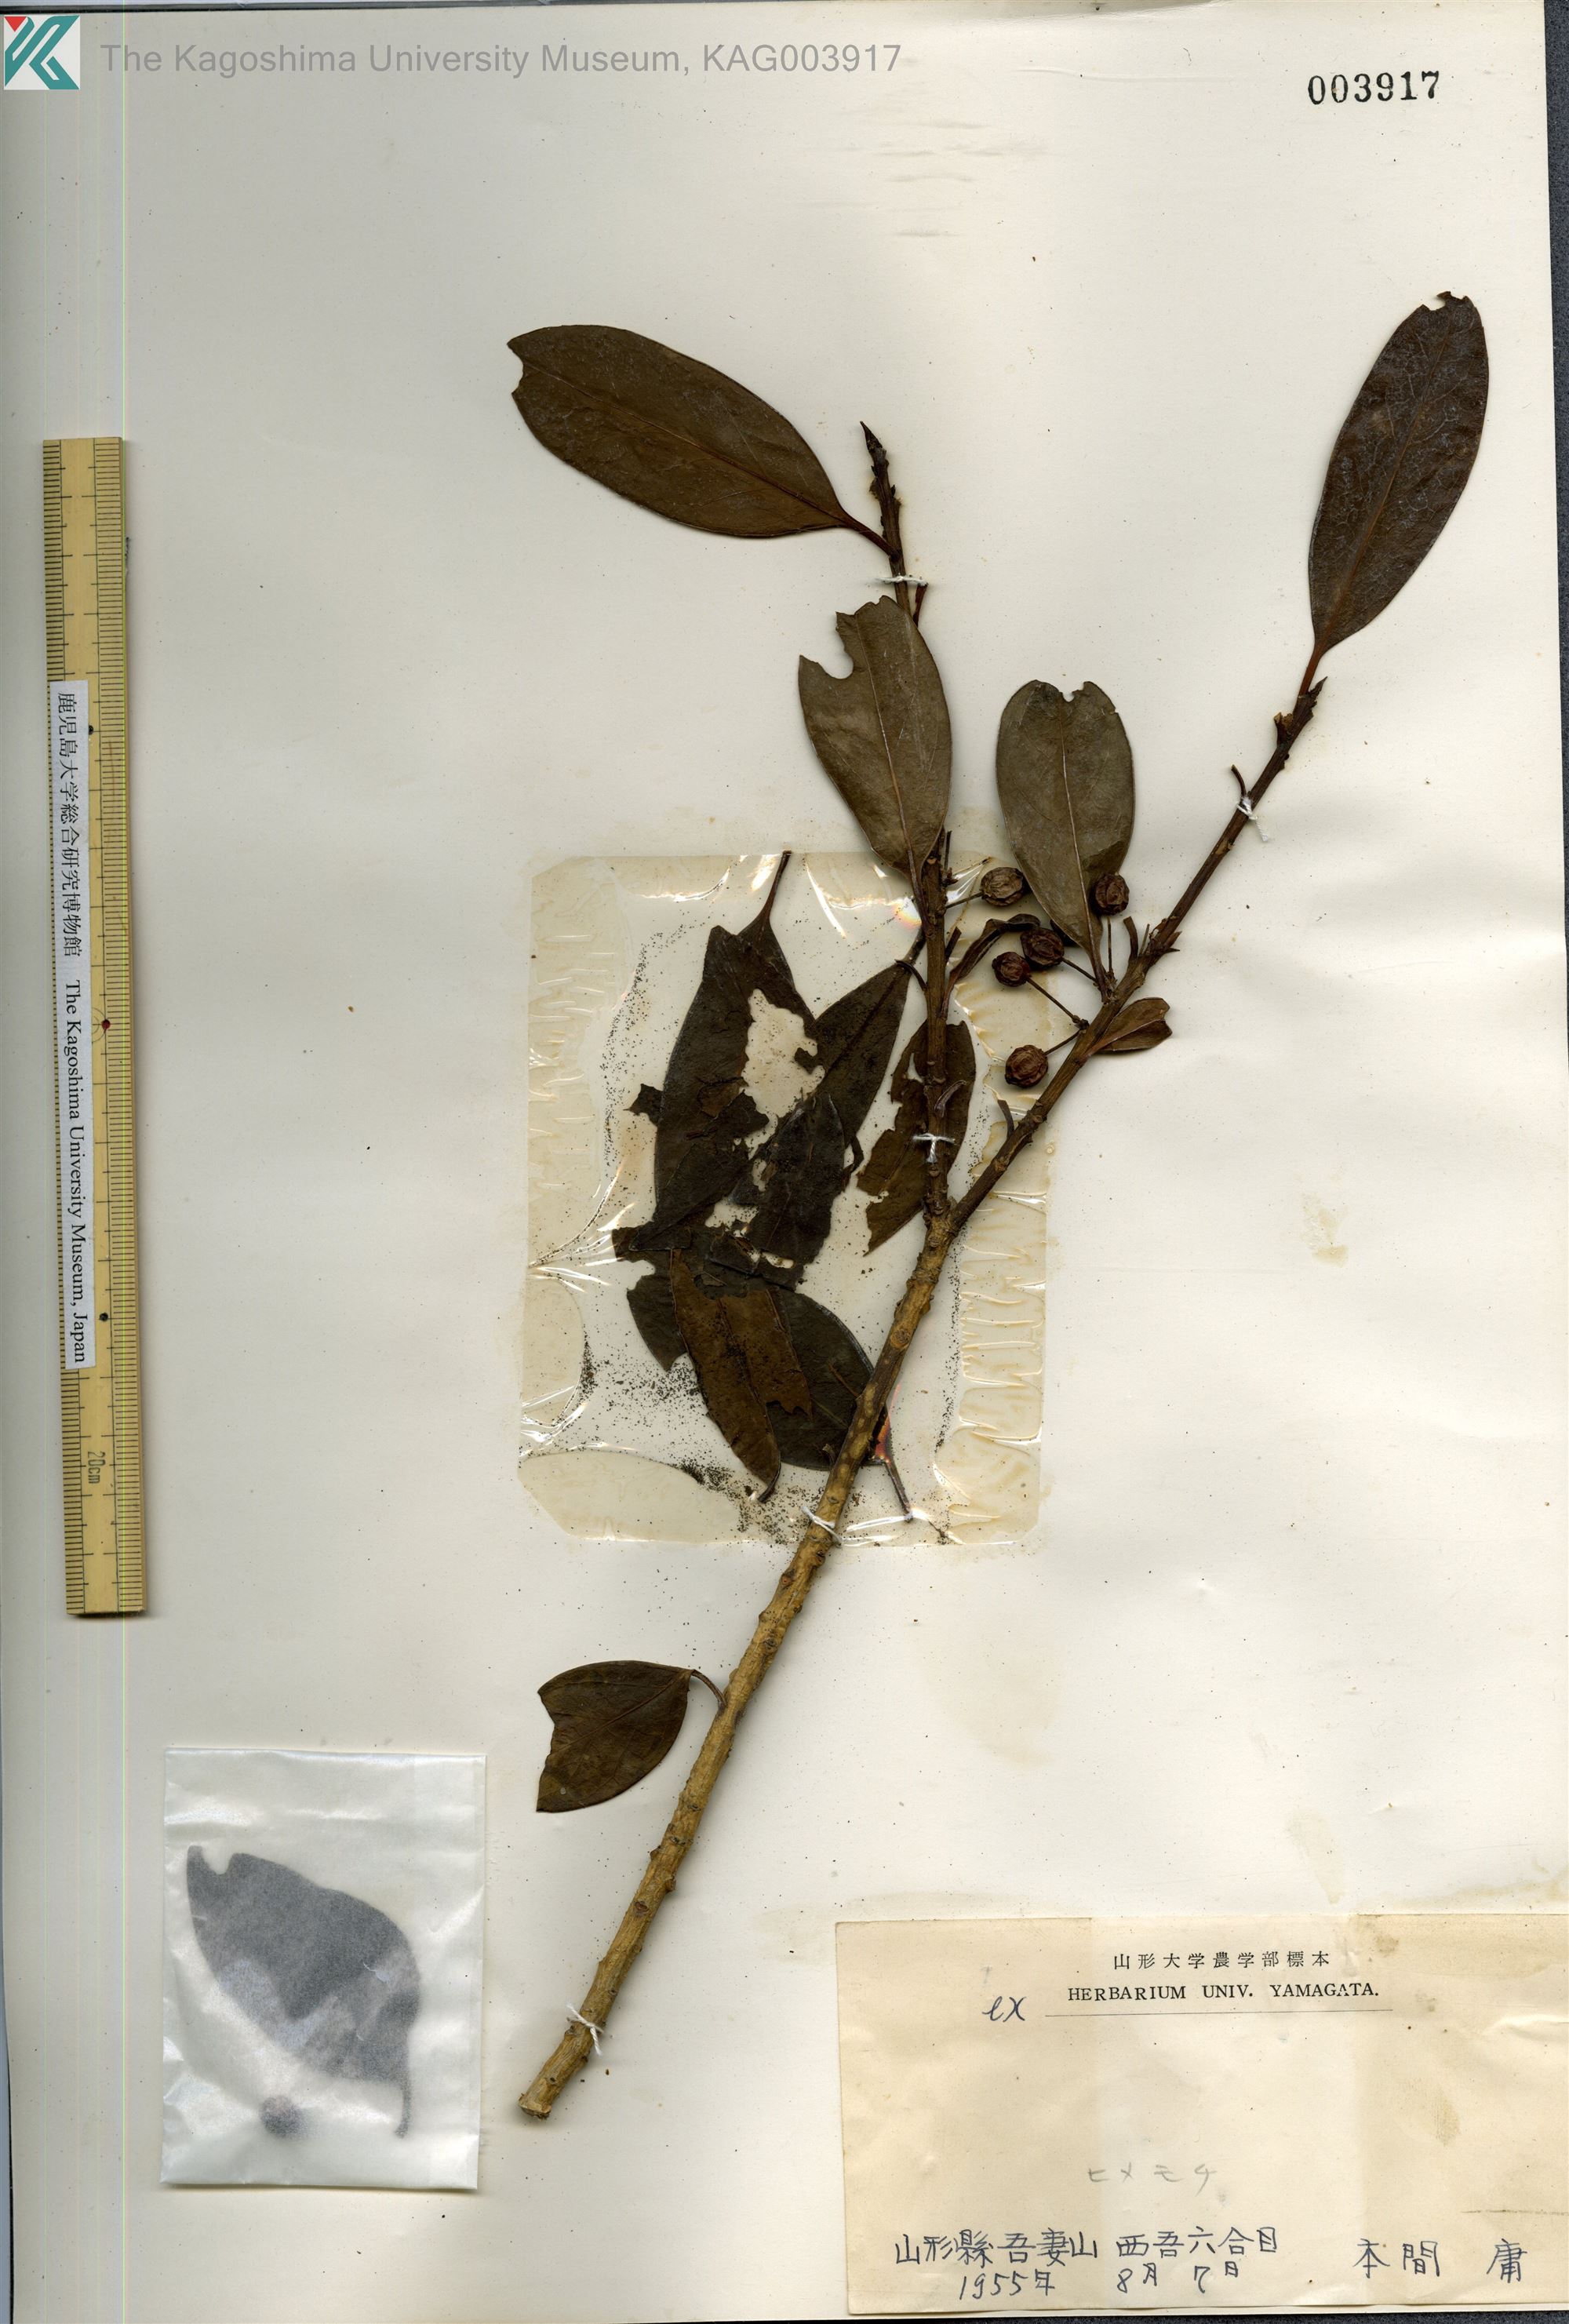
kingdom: Plantae
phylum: Tracheophyta
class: Magnoliopsida
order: Aquifoliales
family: Aquifoliaceae
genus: Ilex
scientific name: Ilex leucoclada
